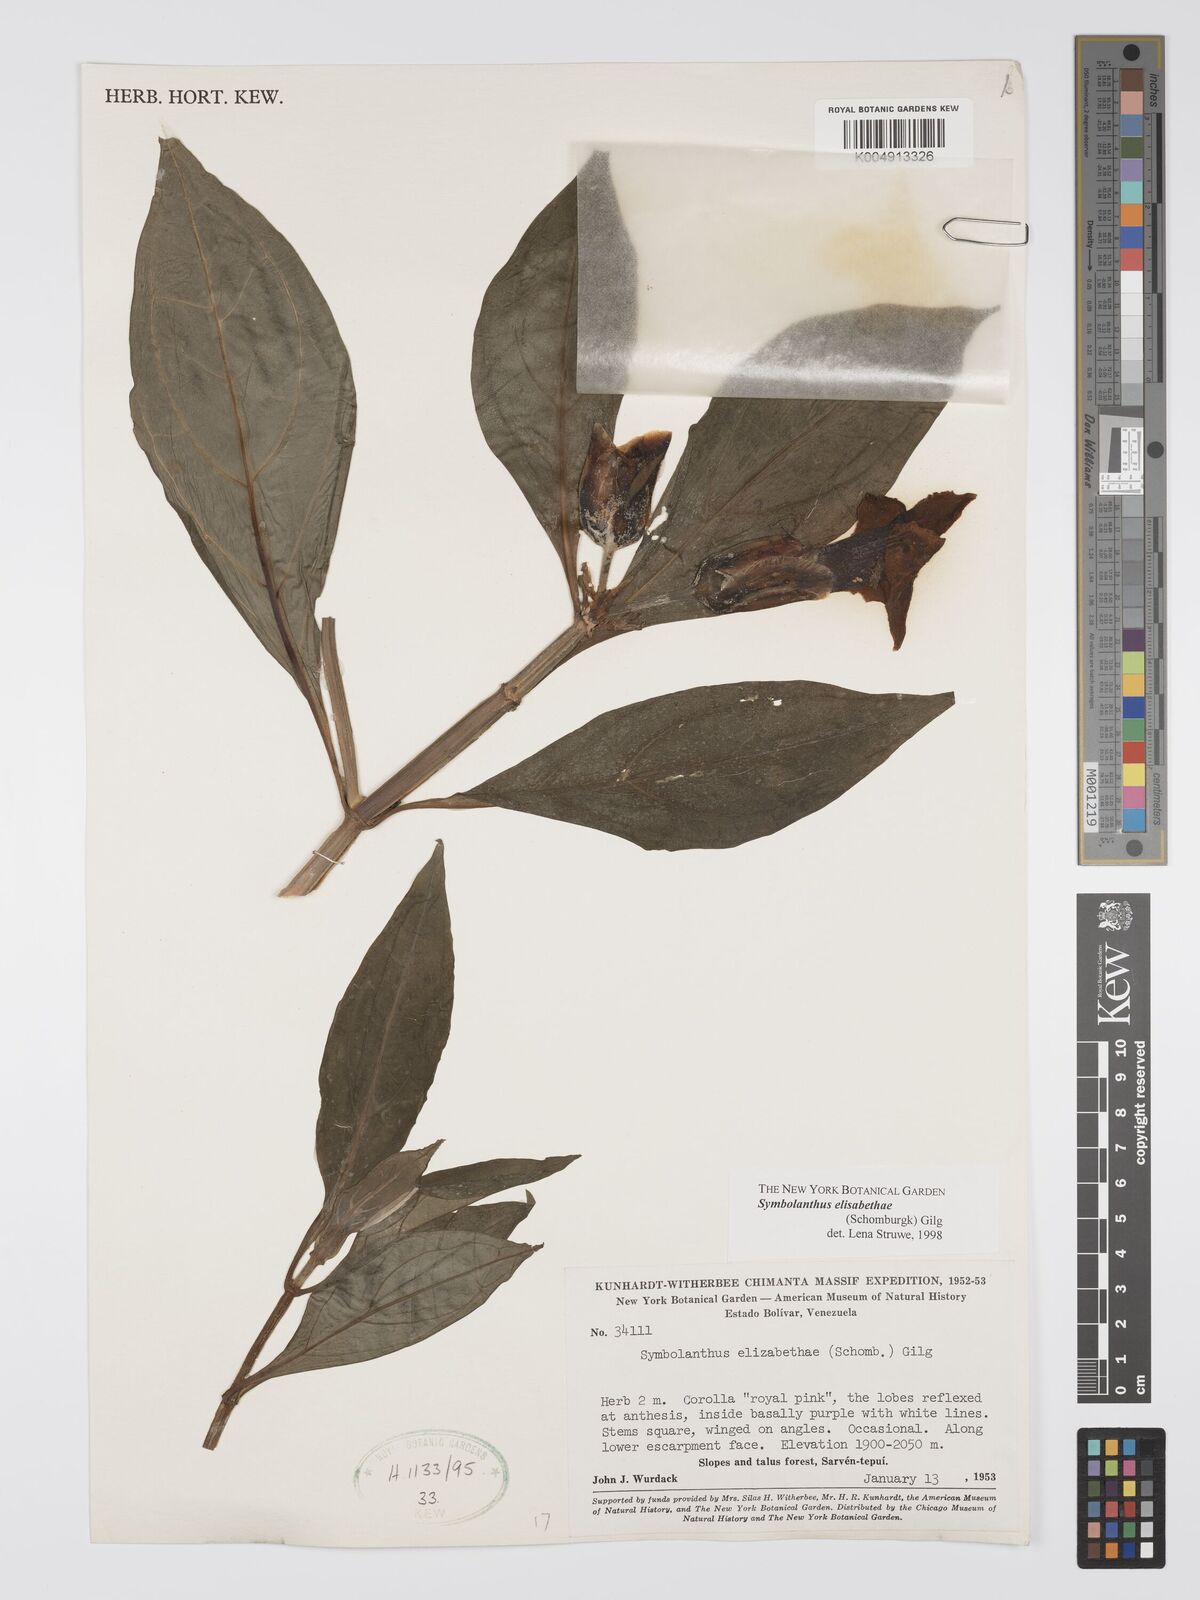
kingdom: Plantae
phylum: Tracheophyta
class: Magnoliopsida
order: Gentianales
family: Gentianaceae
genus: Symbolanthus
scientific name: Symbolanthus elisabethae
